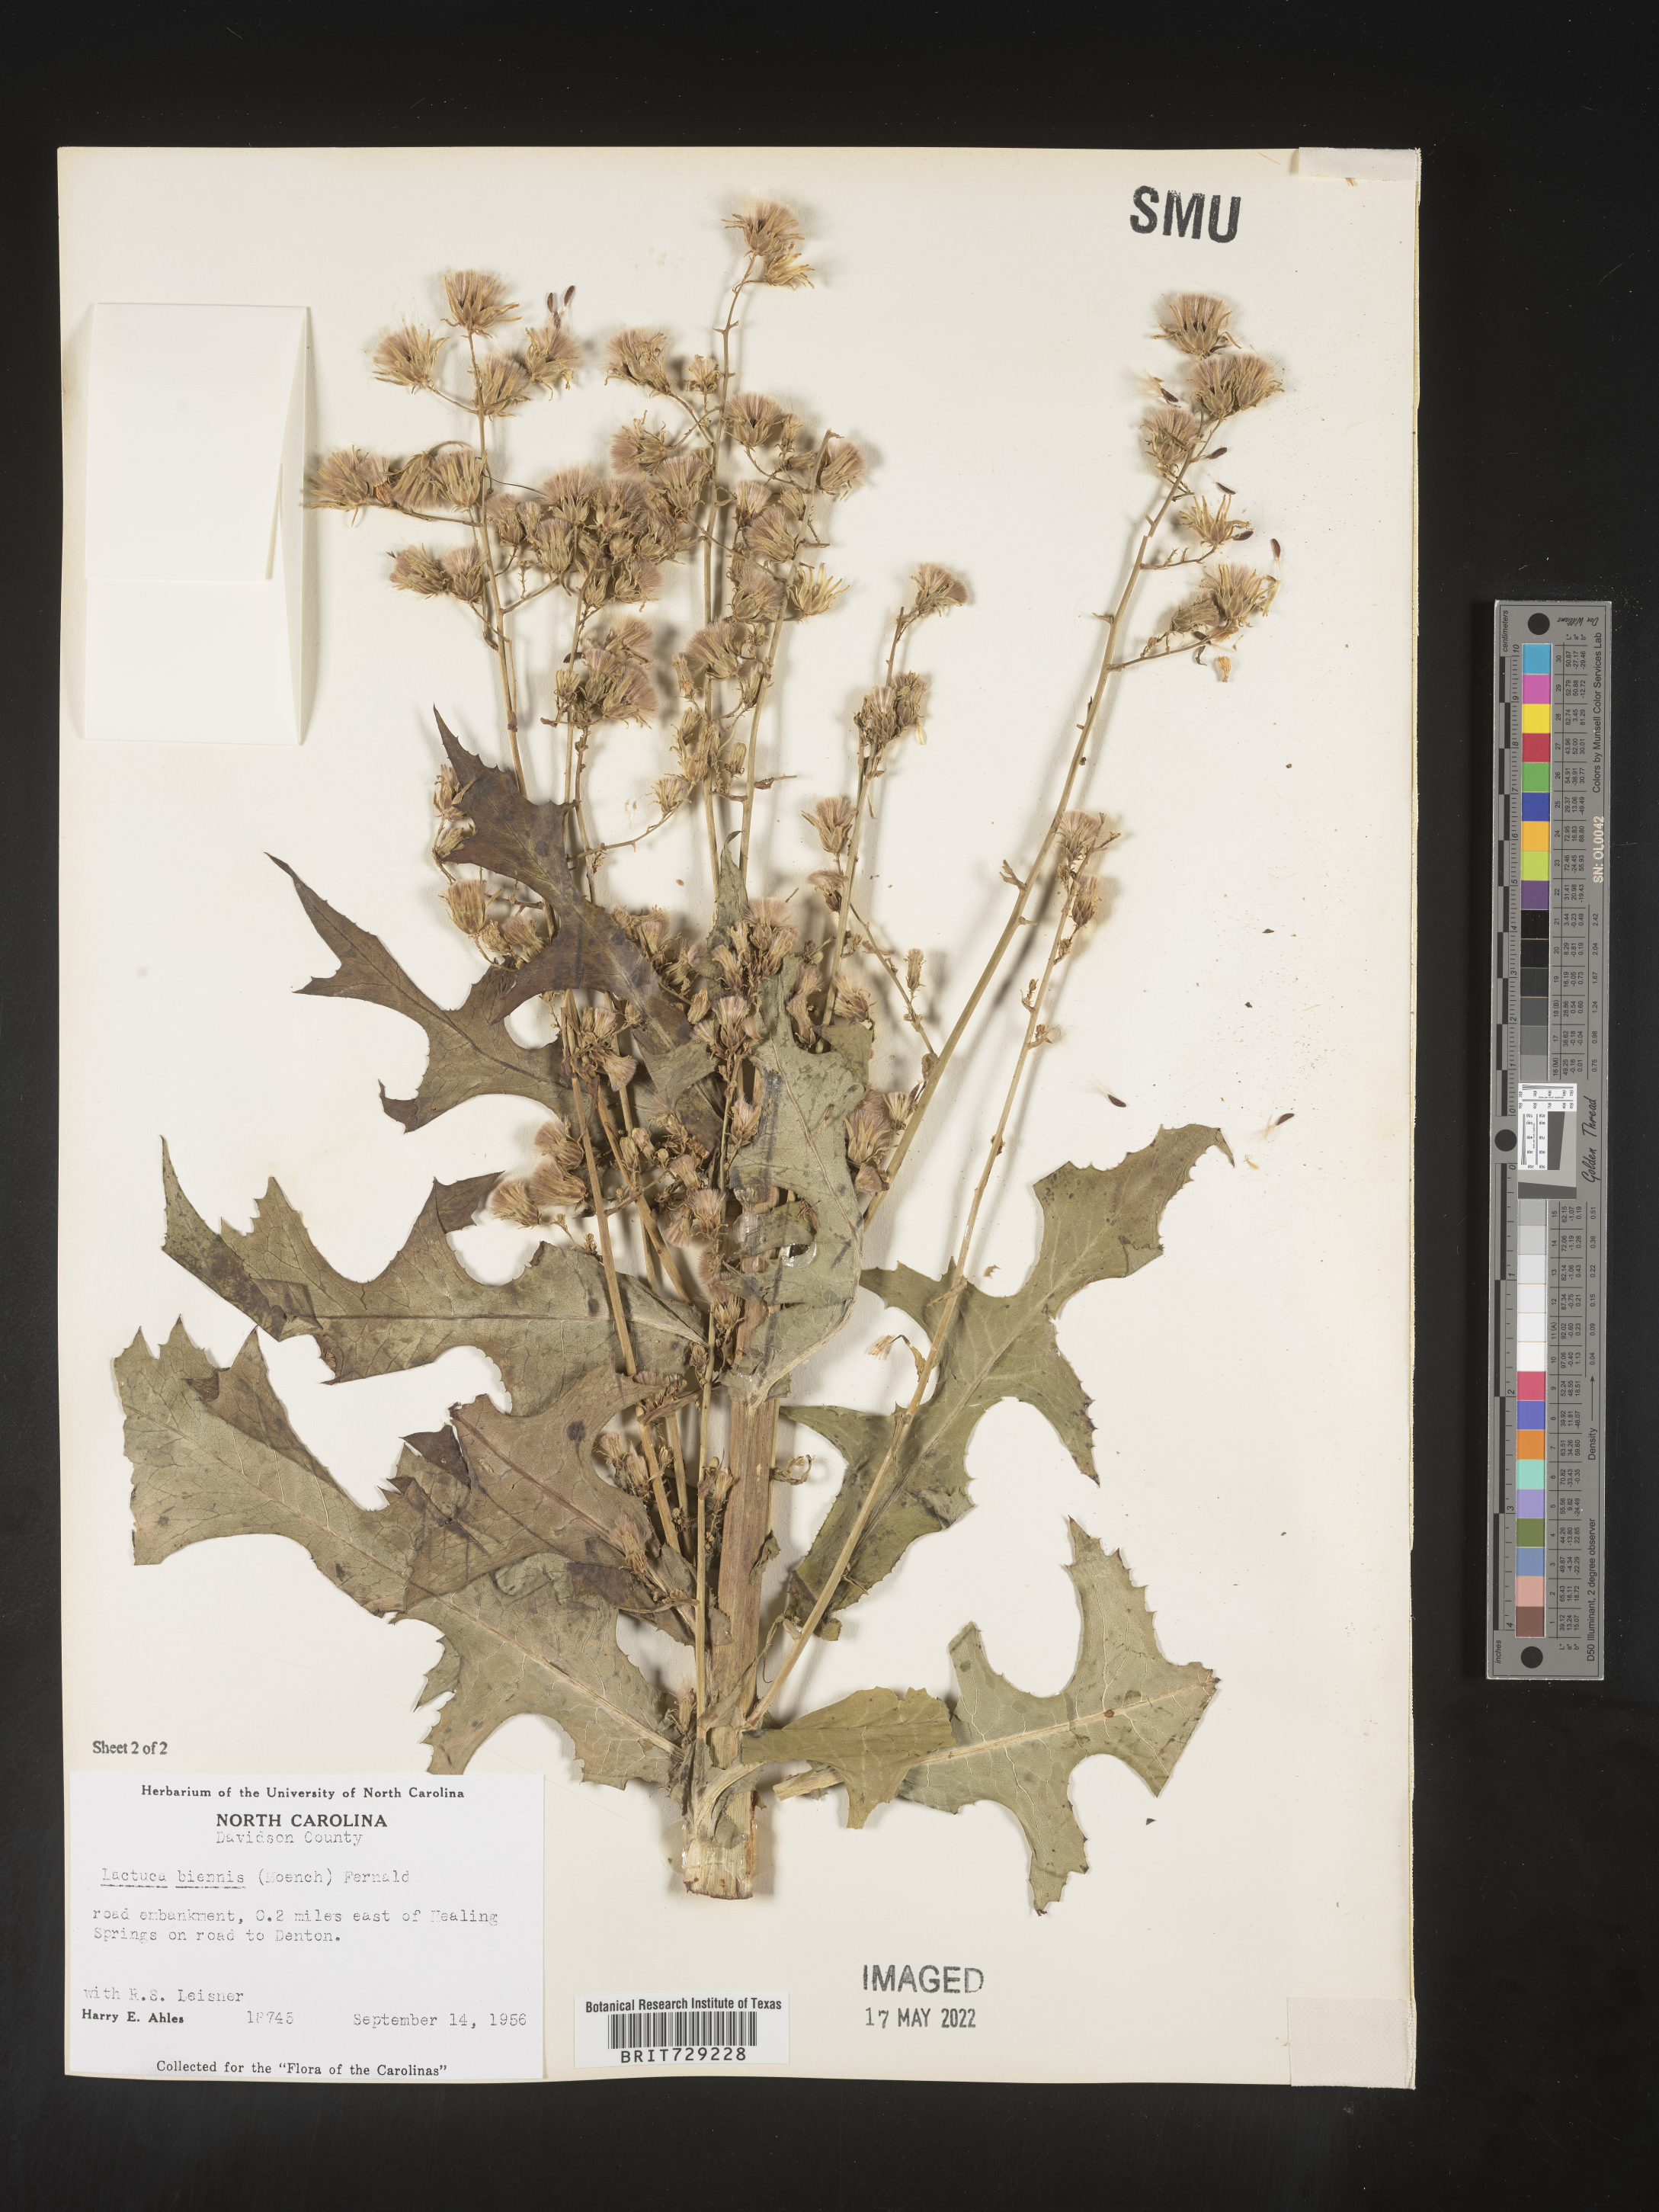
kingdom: Plantae
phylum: Tracheophyta
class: Magnoliopsida
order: Asterales
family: Asteraceae
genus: Lactuca
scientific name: Lactuca biennis
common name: Blue wood lettuce
